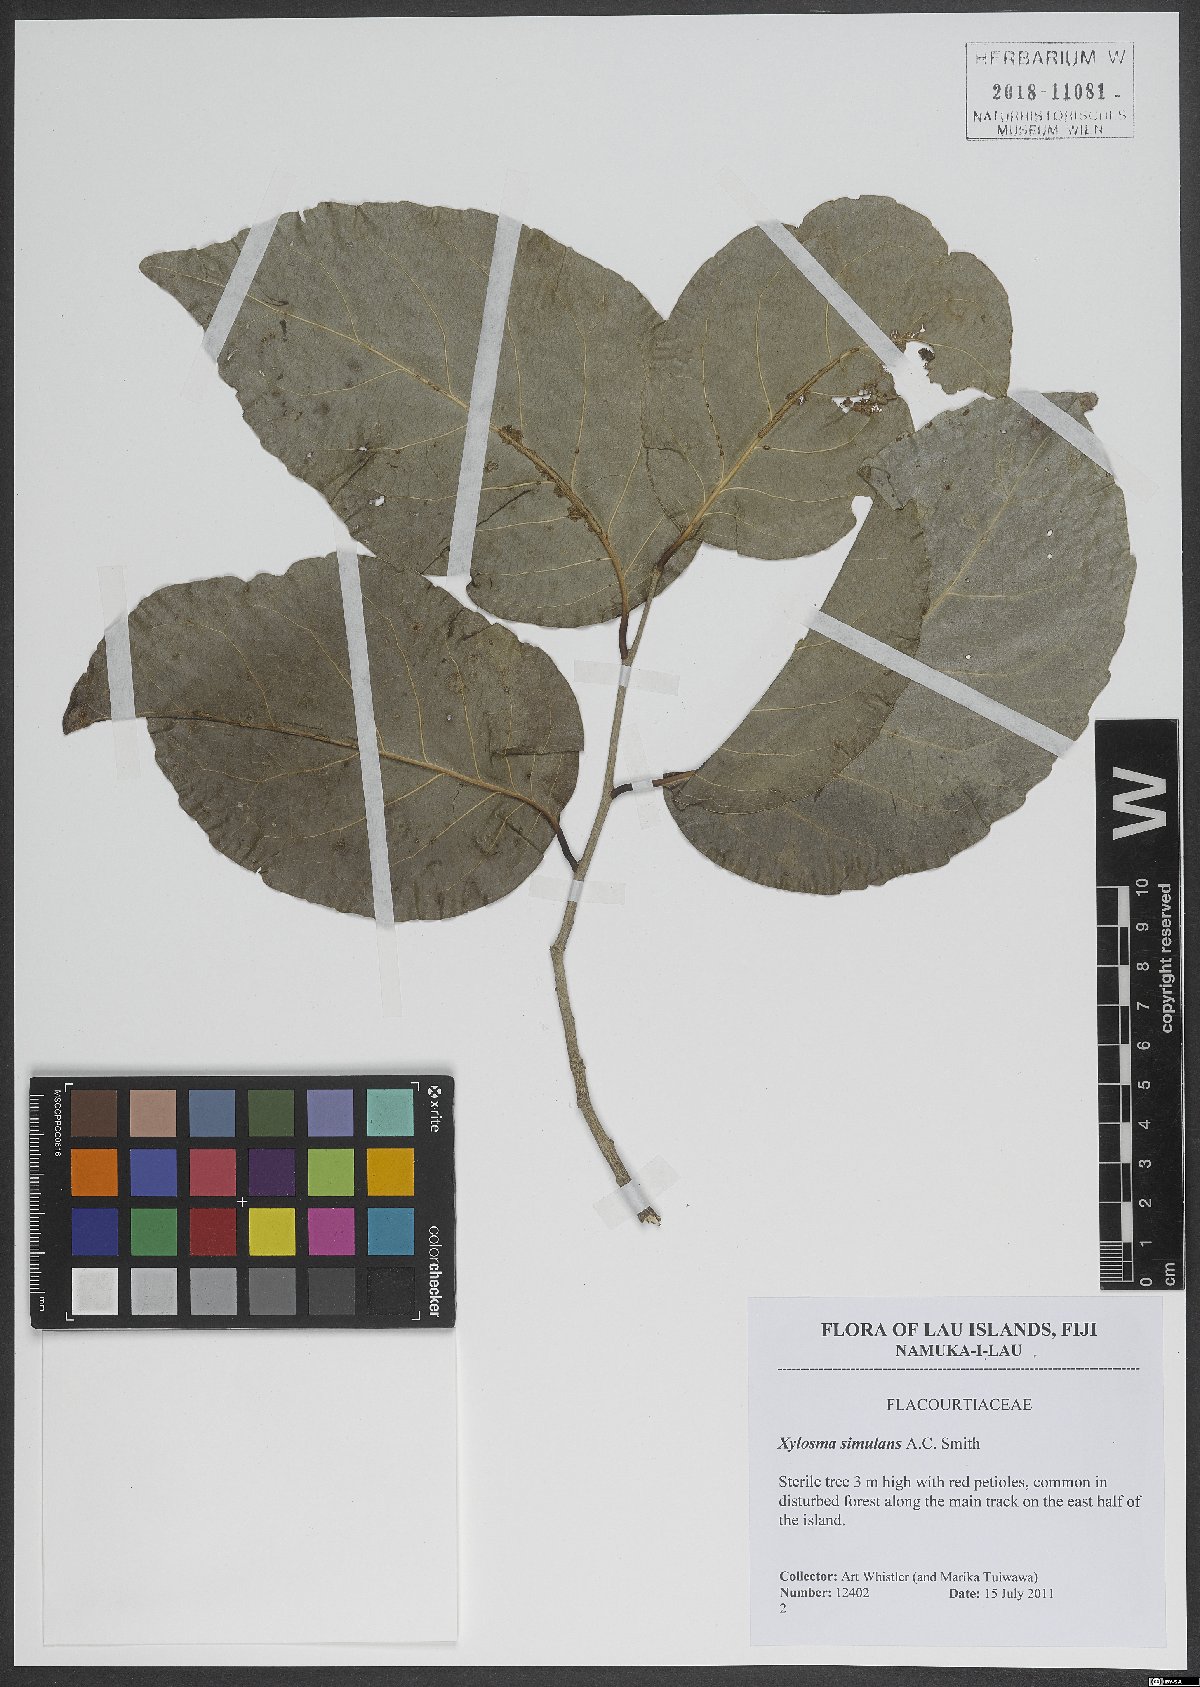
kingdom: Plantae
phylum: Tracheophyta
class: Magnoliopsida
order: Malpighiales
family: Salicaceae
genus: Xylosma
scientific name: Xylosma simulans
